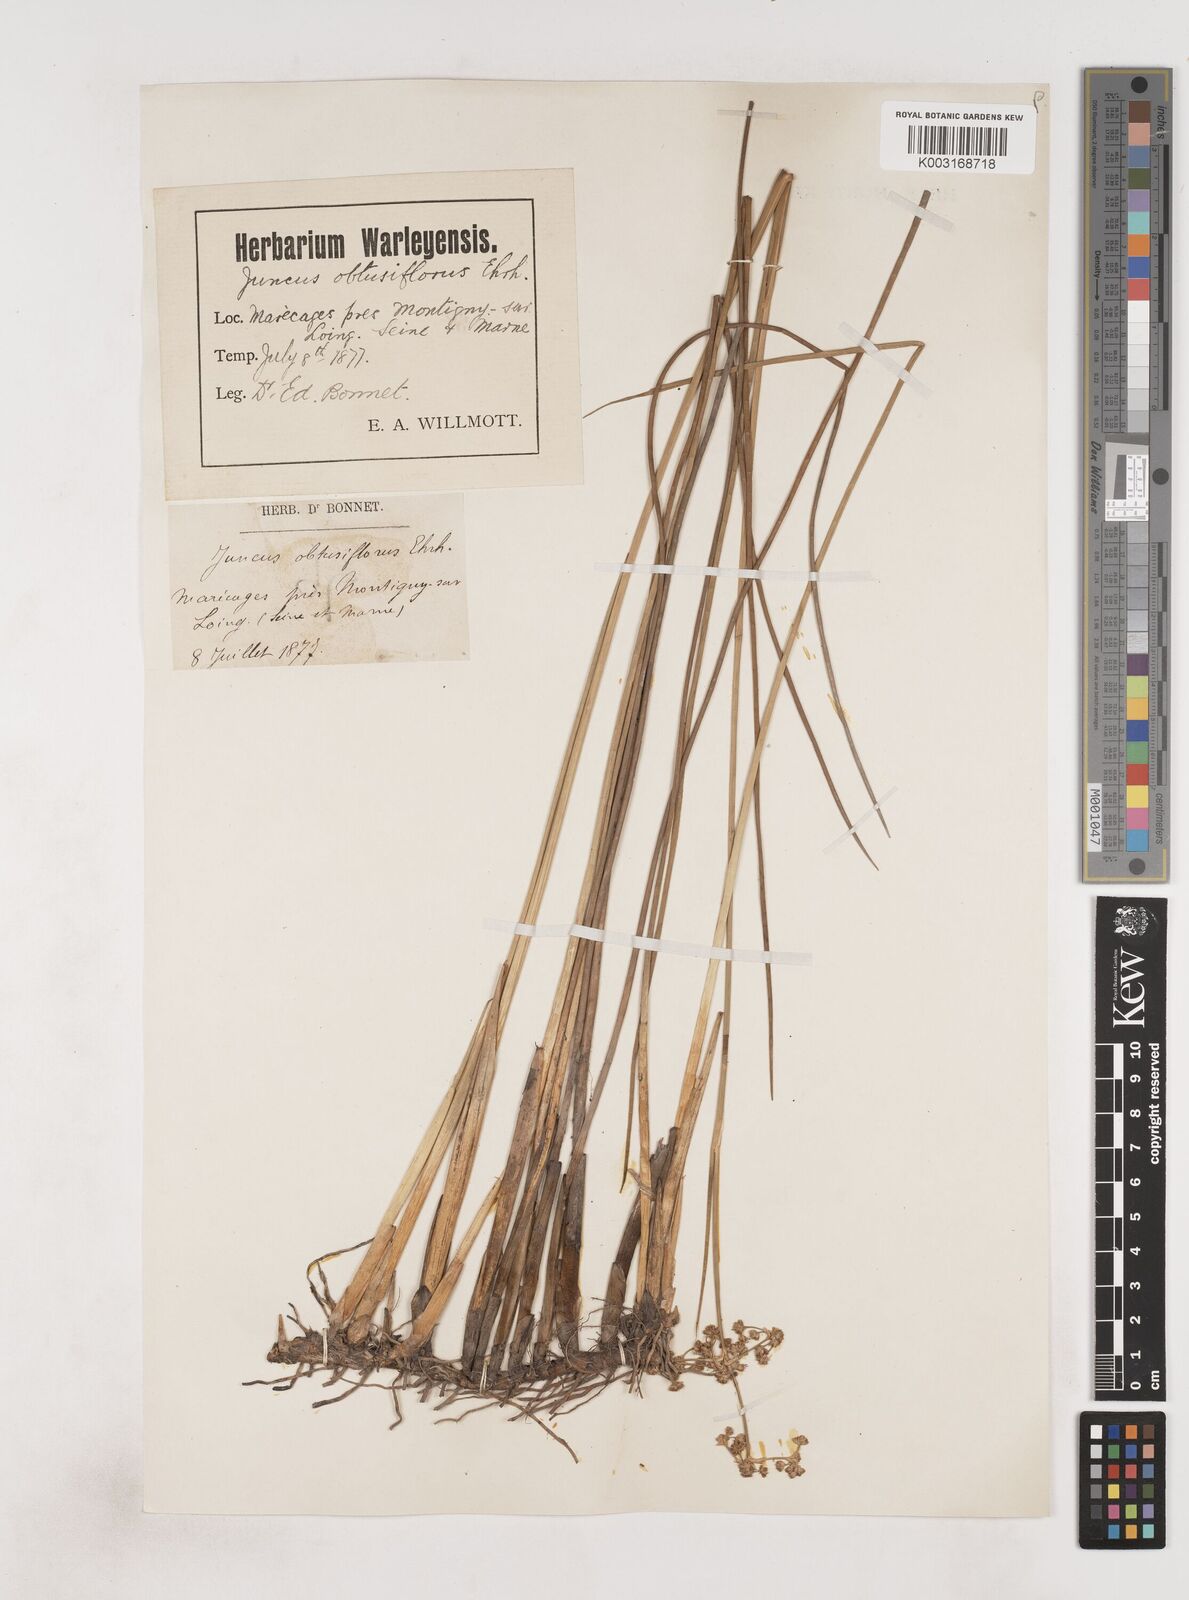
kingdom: Plantae
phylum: Tracheophyta
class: Liliopsida
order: Poales
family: Juncaceae
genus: Juncus
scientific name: Juncus subnodulosus
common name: Blunt-flowered rush
